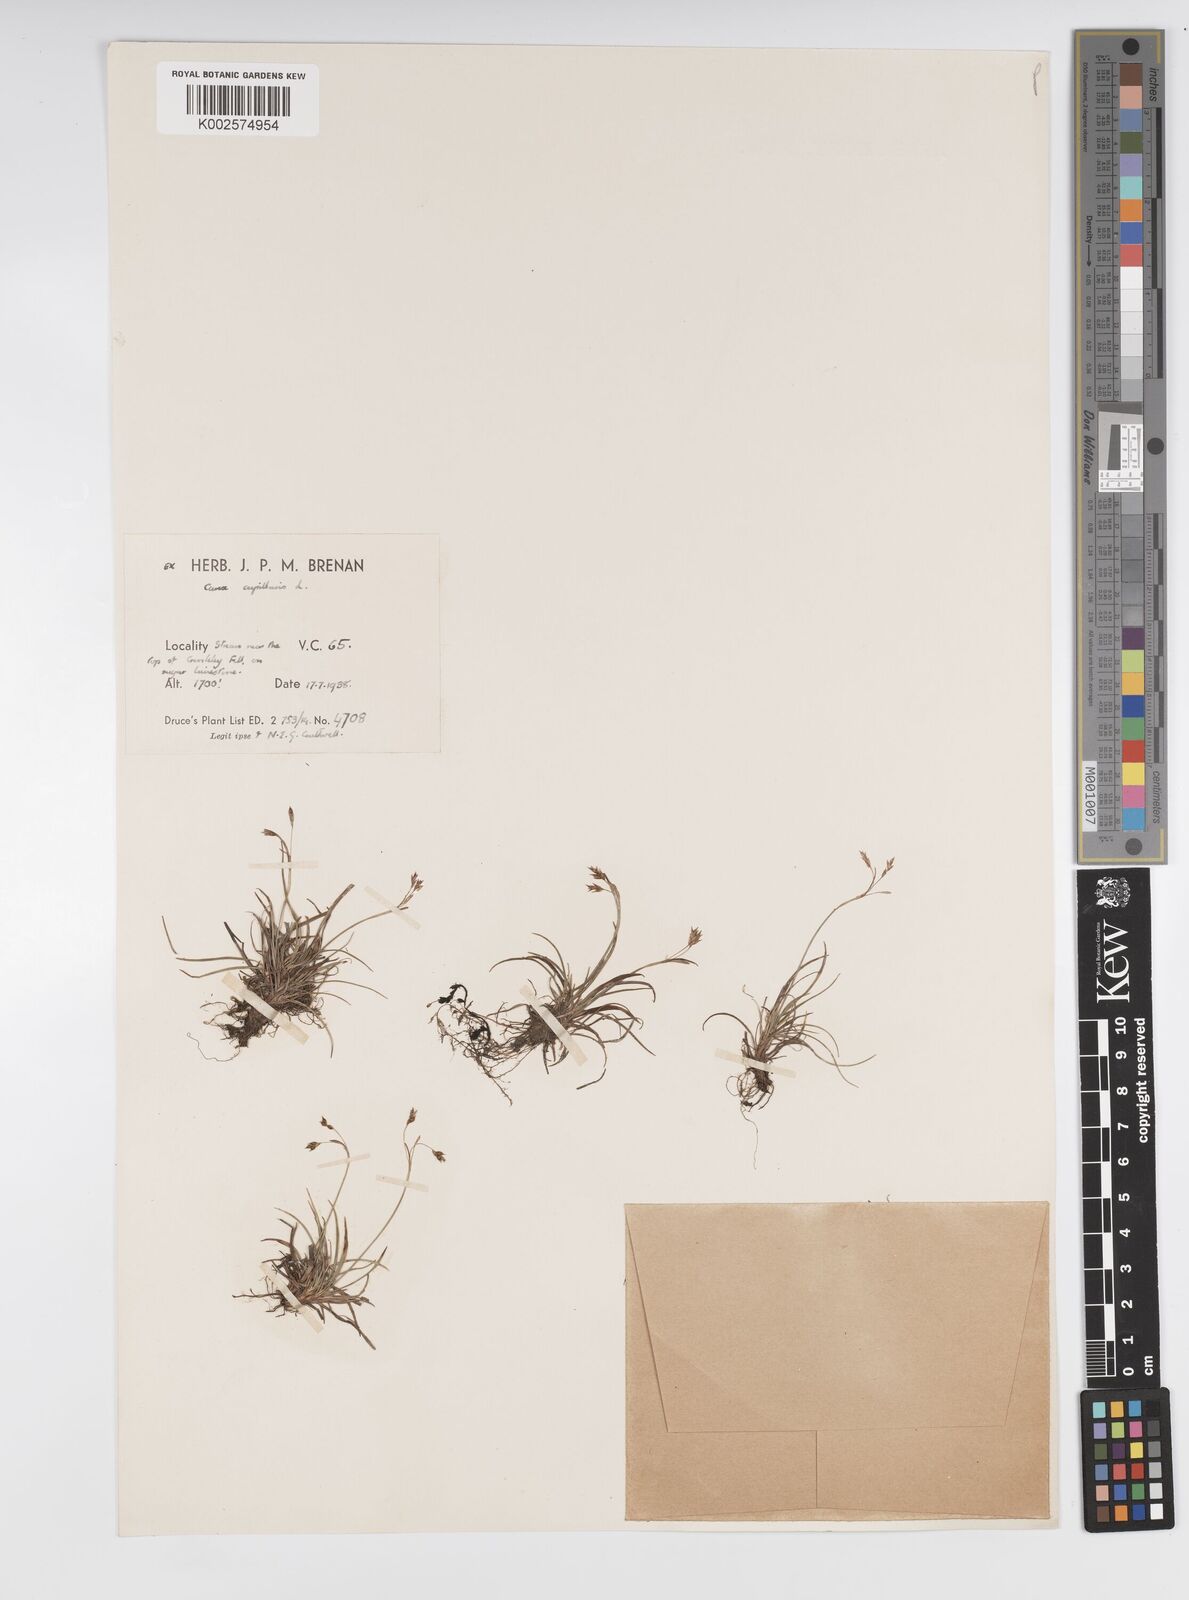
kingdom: Plantae
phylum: Tracheophyta
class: Liliopsida
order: Poales
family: Cyperaceae
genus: Carex
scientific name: Carex capillaris
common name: Hair sedge
